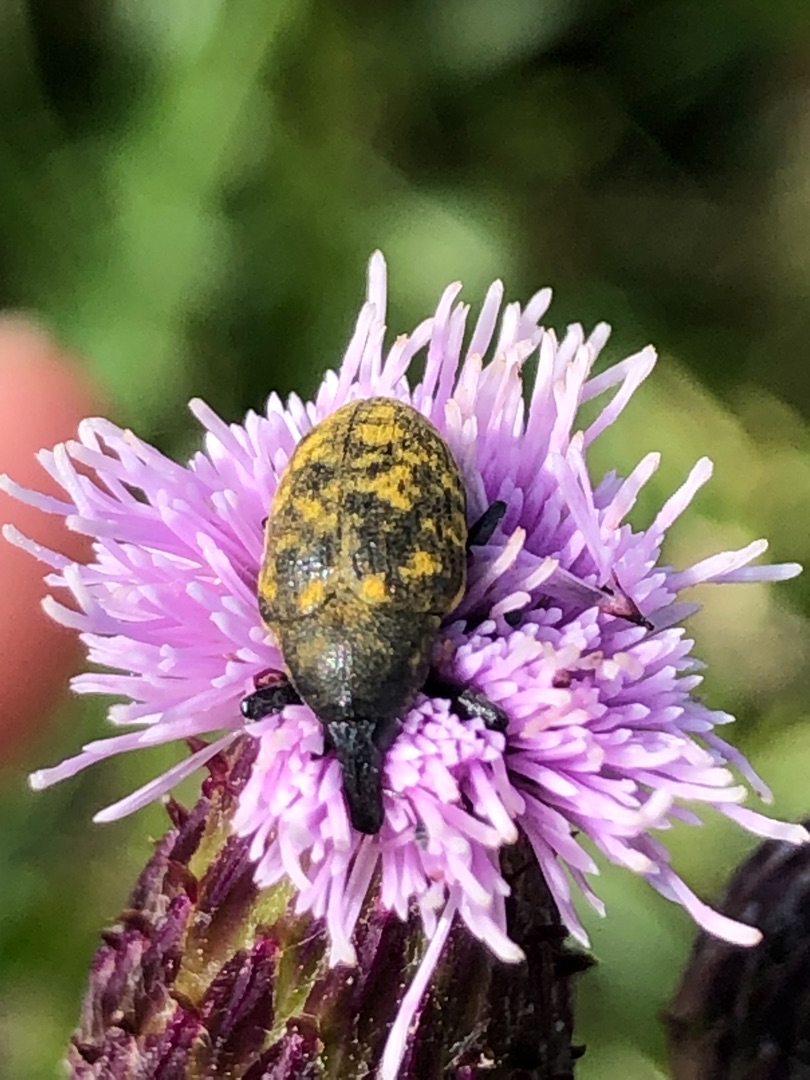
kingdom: Animalia
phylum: Arthropoda
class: Insecta
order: Coleoptera
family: Curculionidae
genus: Larinus
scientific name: Larinus turbinatus
